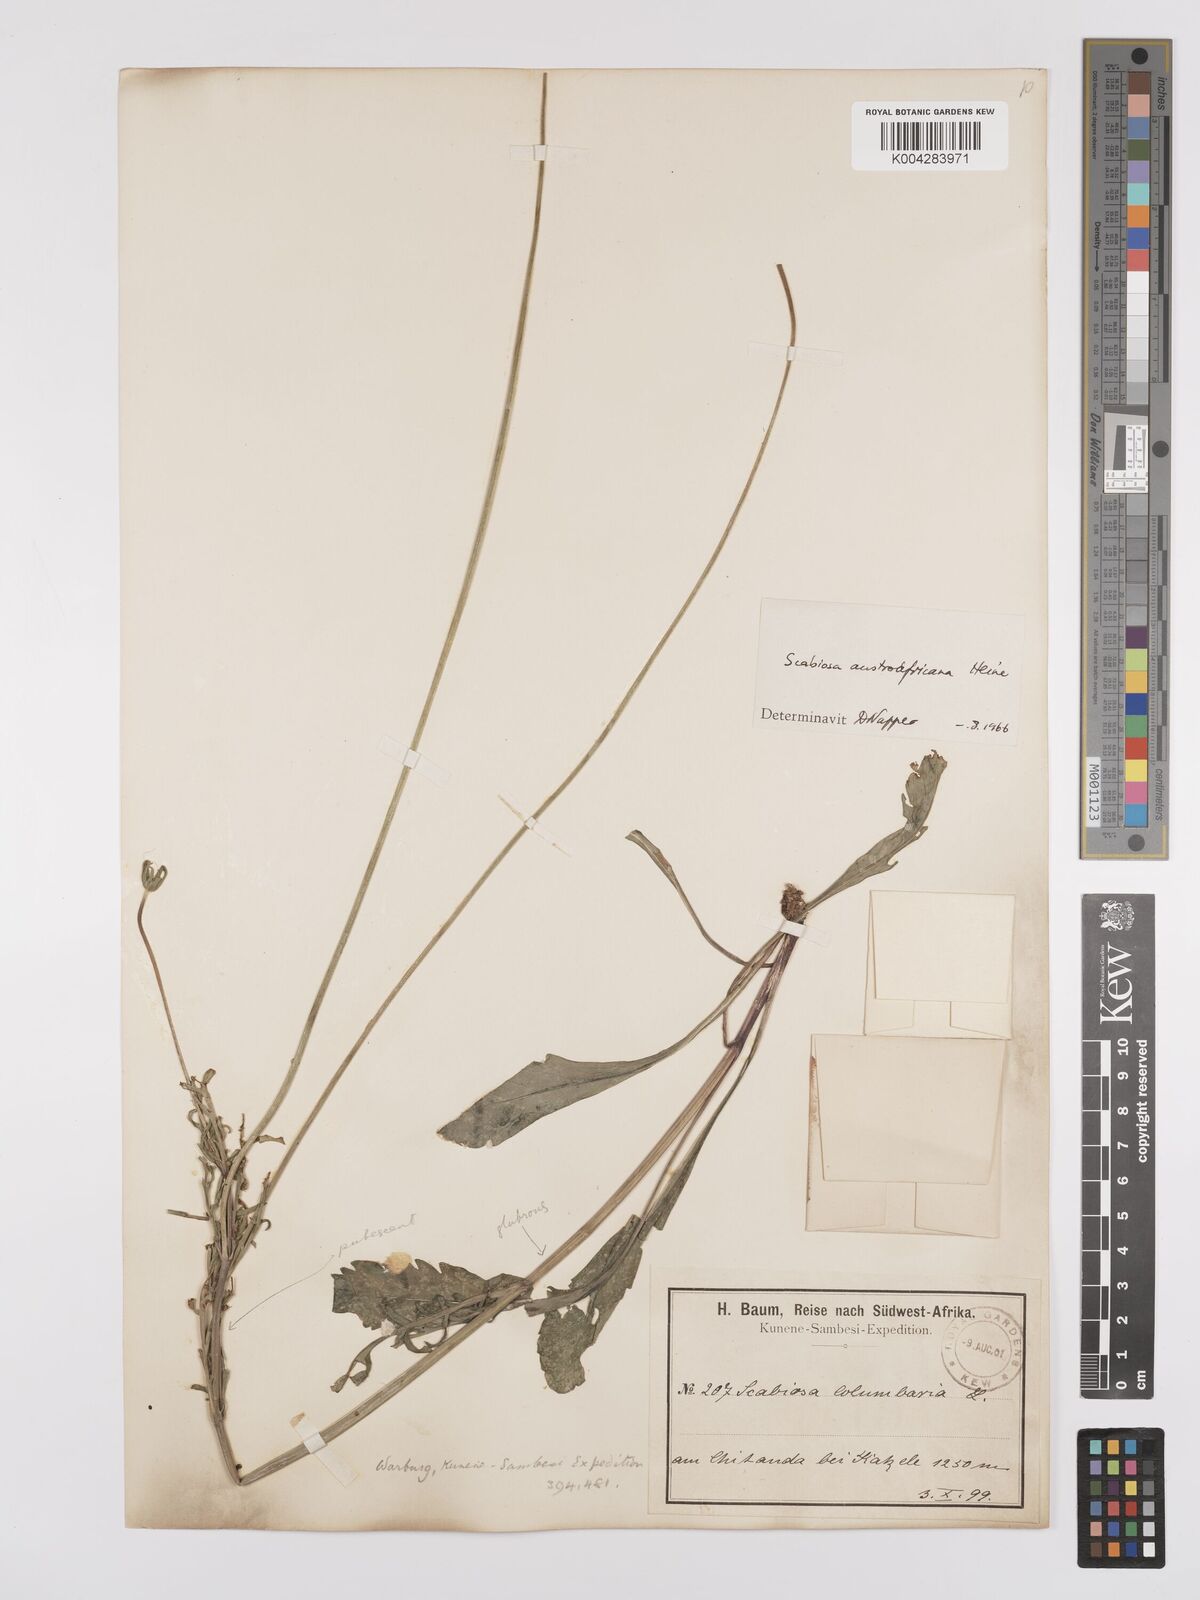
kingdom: Plantae
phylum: Tracheophyta
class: Magnoliopsida
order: Dipsacales
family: Caprifoliaceae
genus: Scabiosa
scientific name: Scabiosa austroafricana
